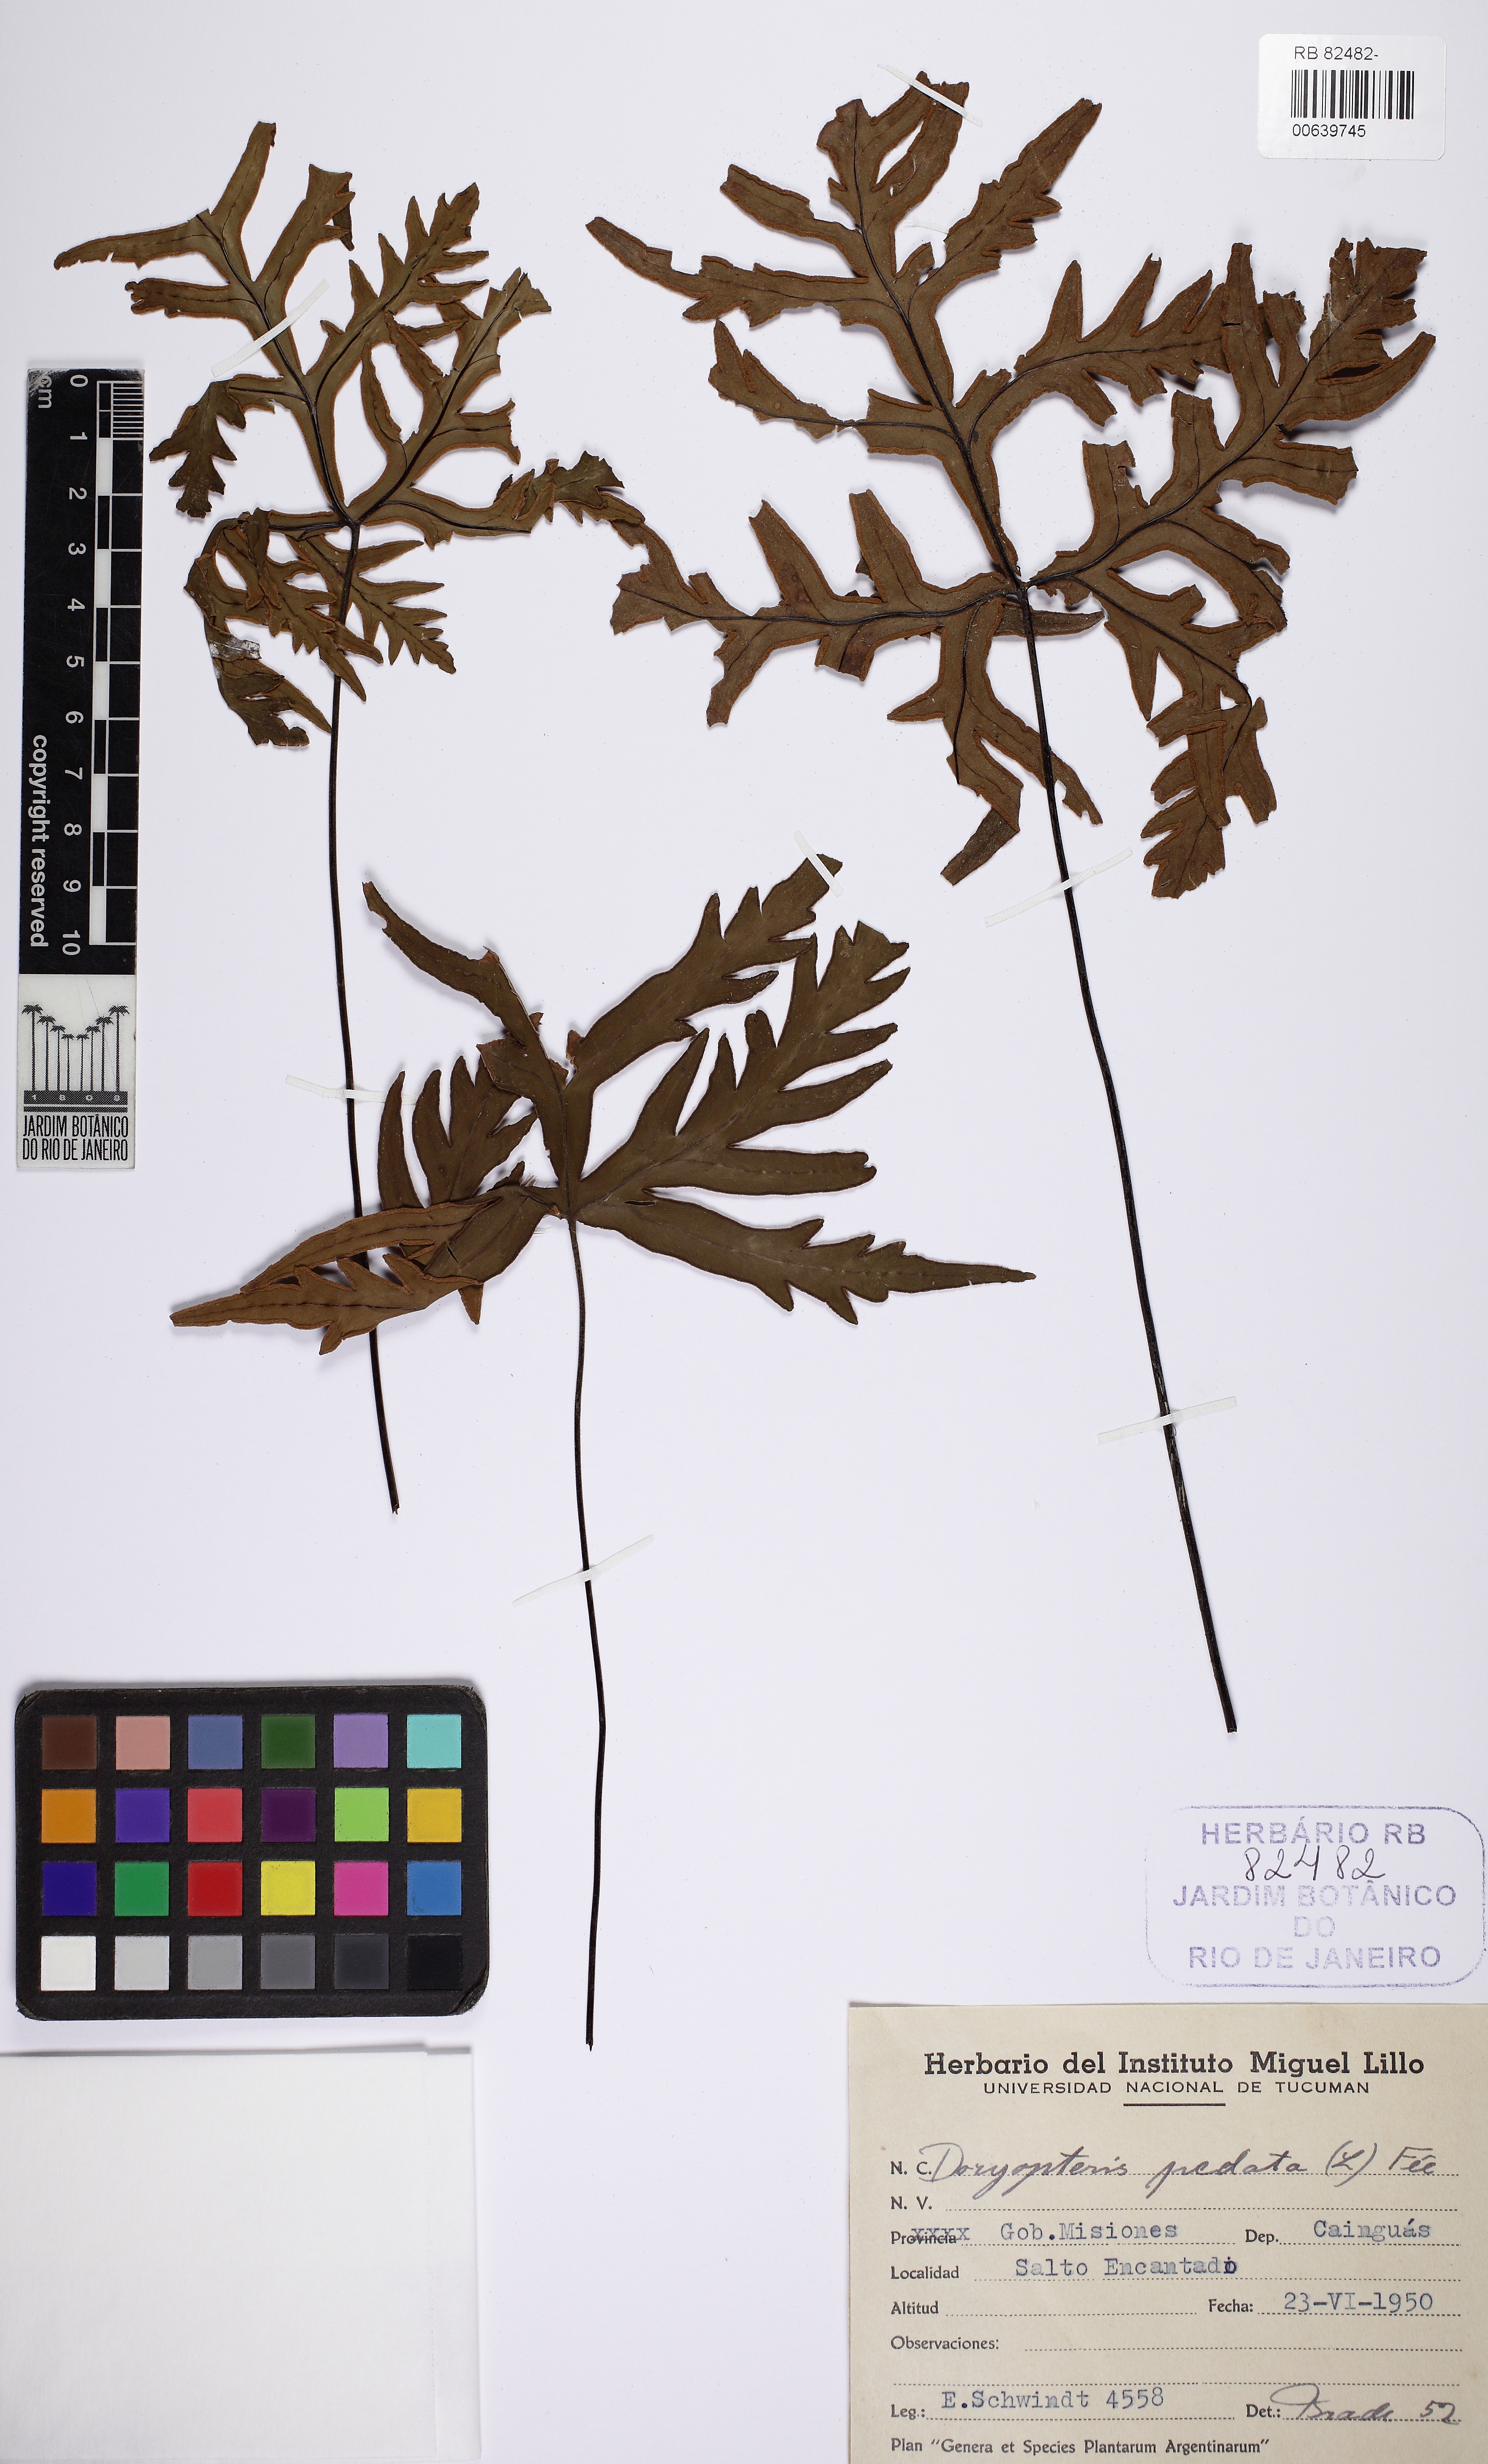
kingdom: Plantae
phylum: Tracheophyta
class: Polypodiopsida
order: Polypodiales
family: Pteridaceae
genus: Doryopteris
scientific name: Doryopteris pentagona
